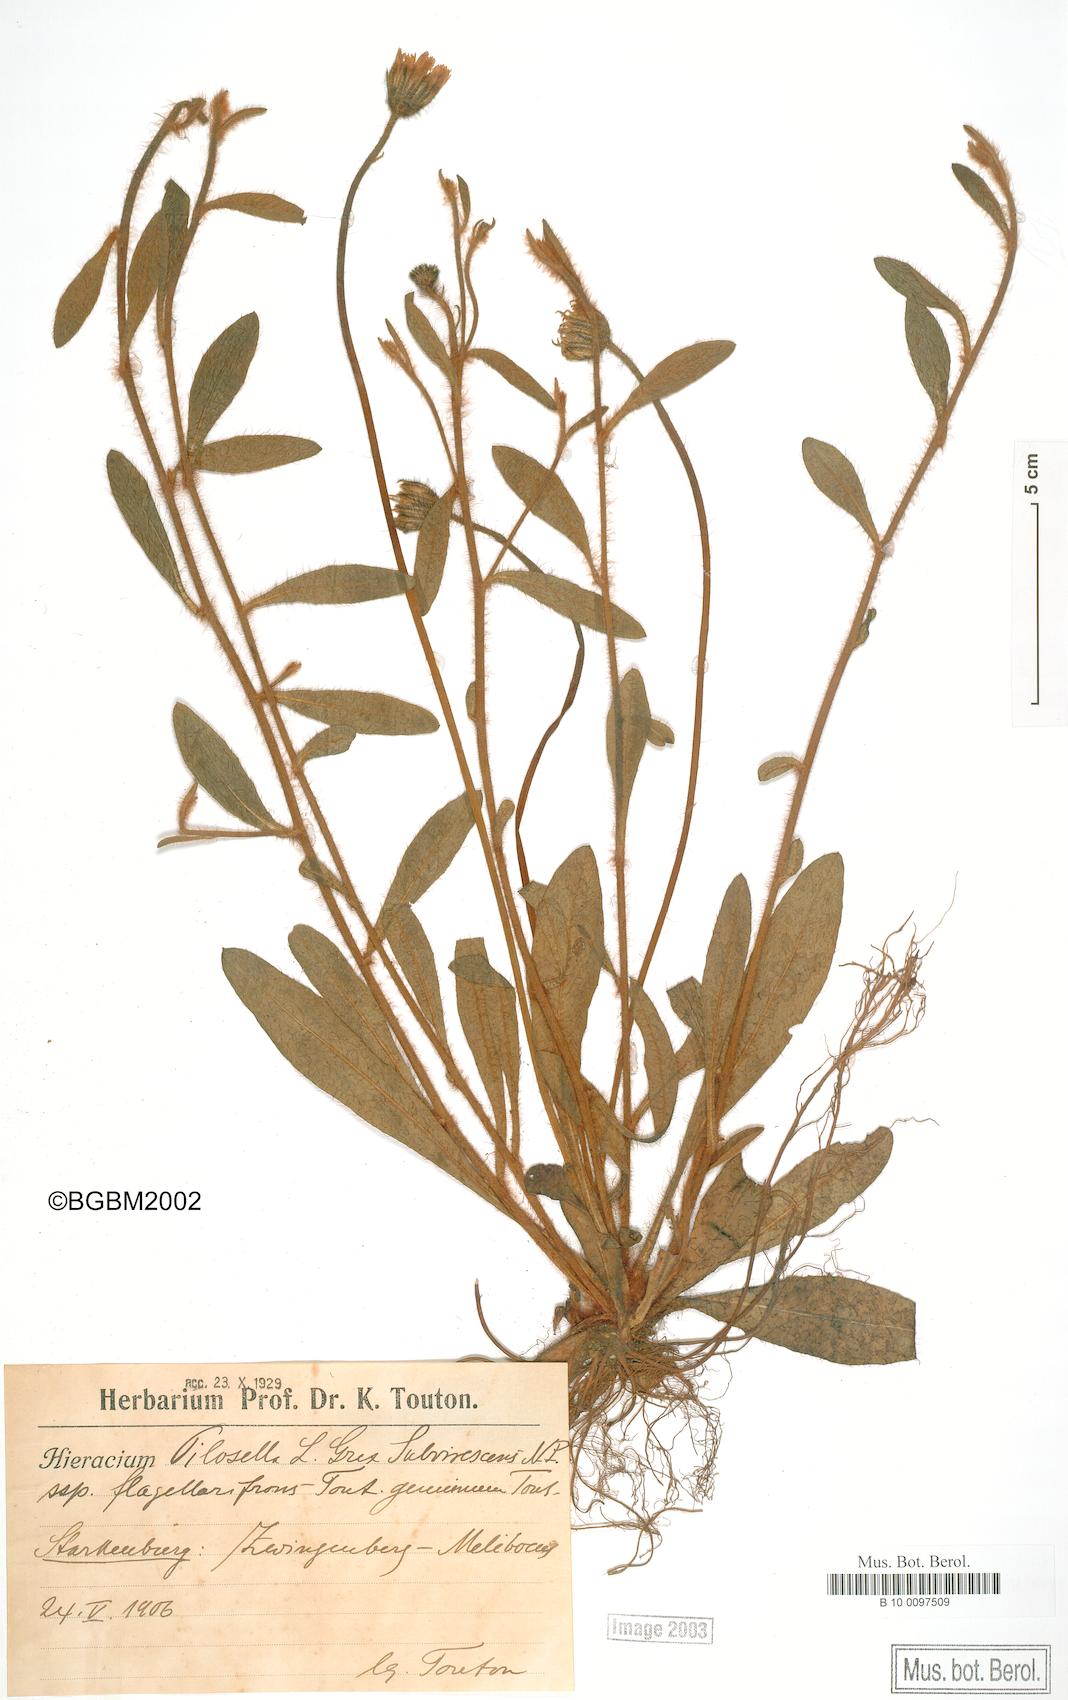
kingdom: Plantae
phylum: Tracheophyta
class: Magnoliopsida
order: Asterales
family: Asteraceae
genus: Pilosella
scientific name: Pilosella officinarum
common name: Mouse-ear hawkweed
